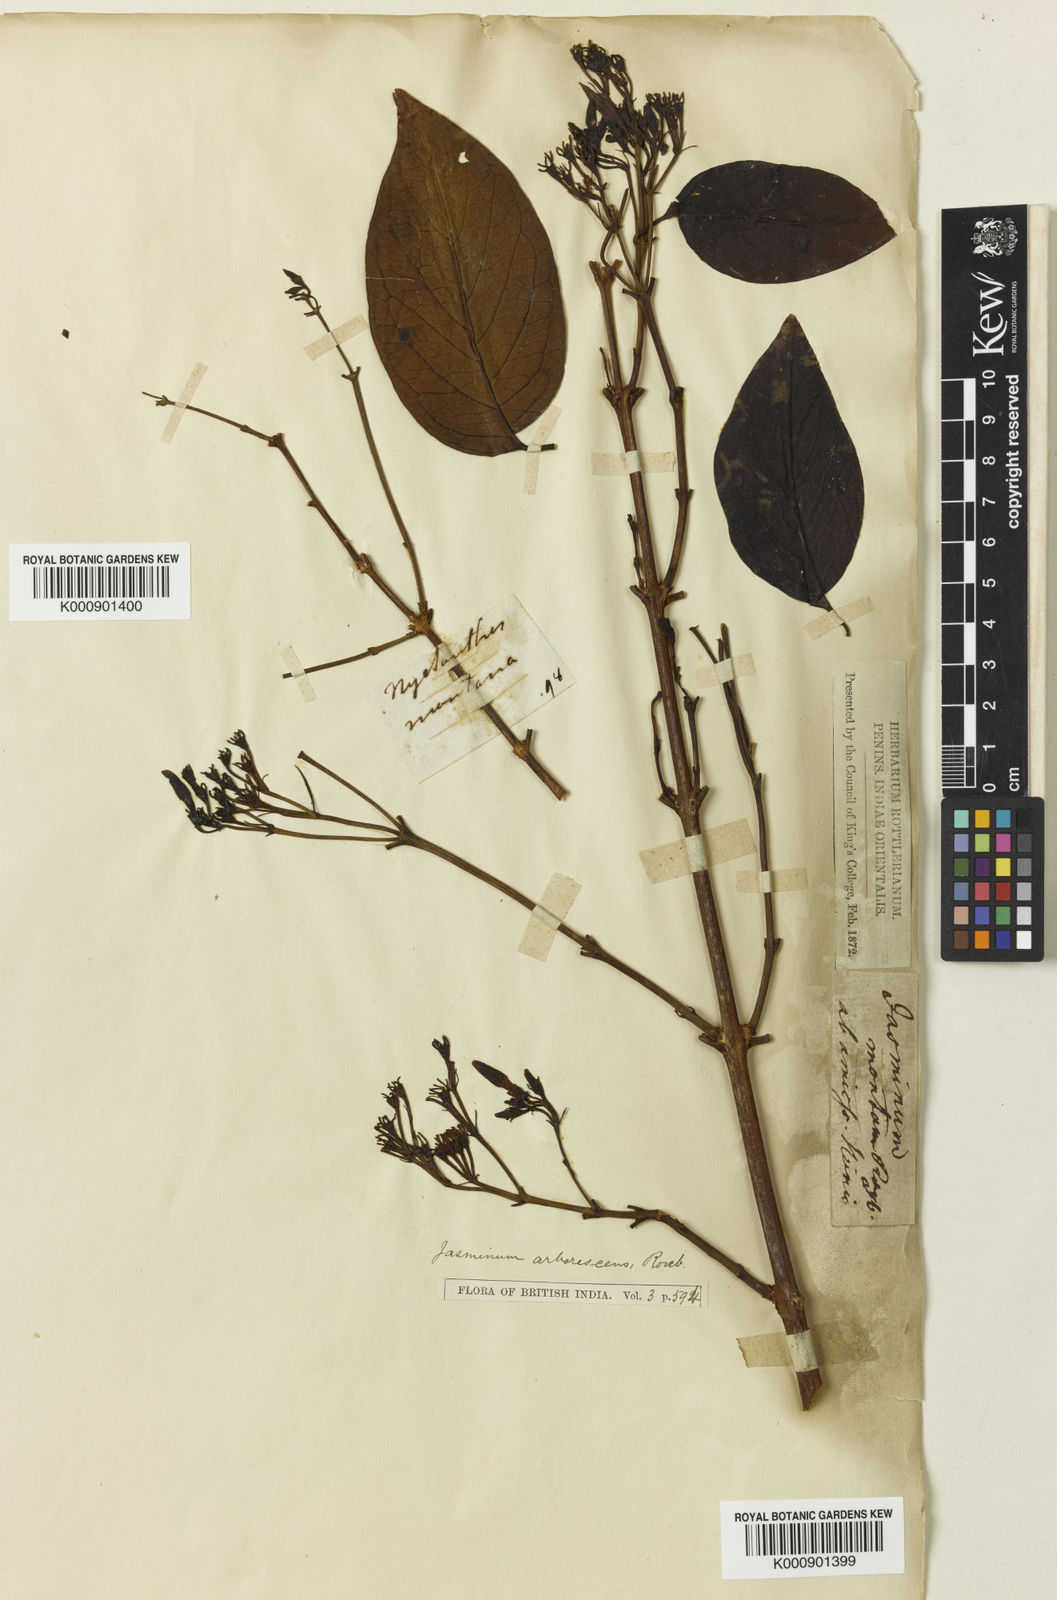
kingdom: Plantae
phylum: Tracheophyta
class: Magnoliopsida
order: Lamiales
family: Oleaceae
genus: Jasminum
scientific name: Jasminum arborescens
